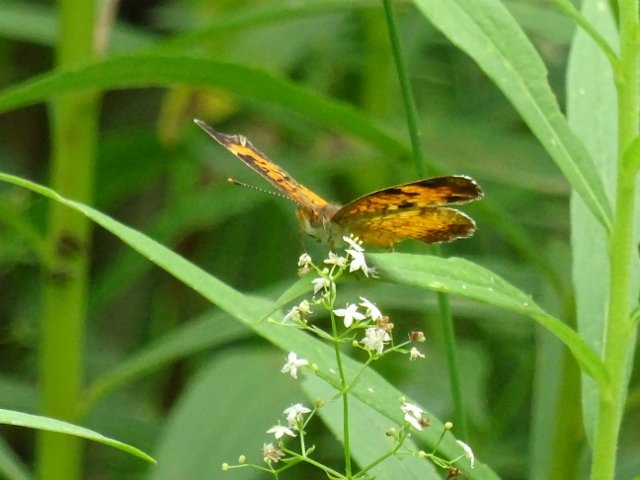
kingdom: Animalia
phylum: Arthropoda
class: Insecta
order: Lepidoptera
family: Nymphalidae
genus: Phyciodes
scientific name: Phyciodes tharos
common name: Northern Crescent
